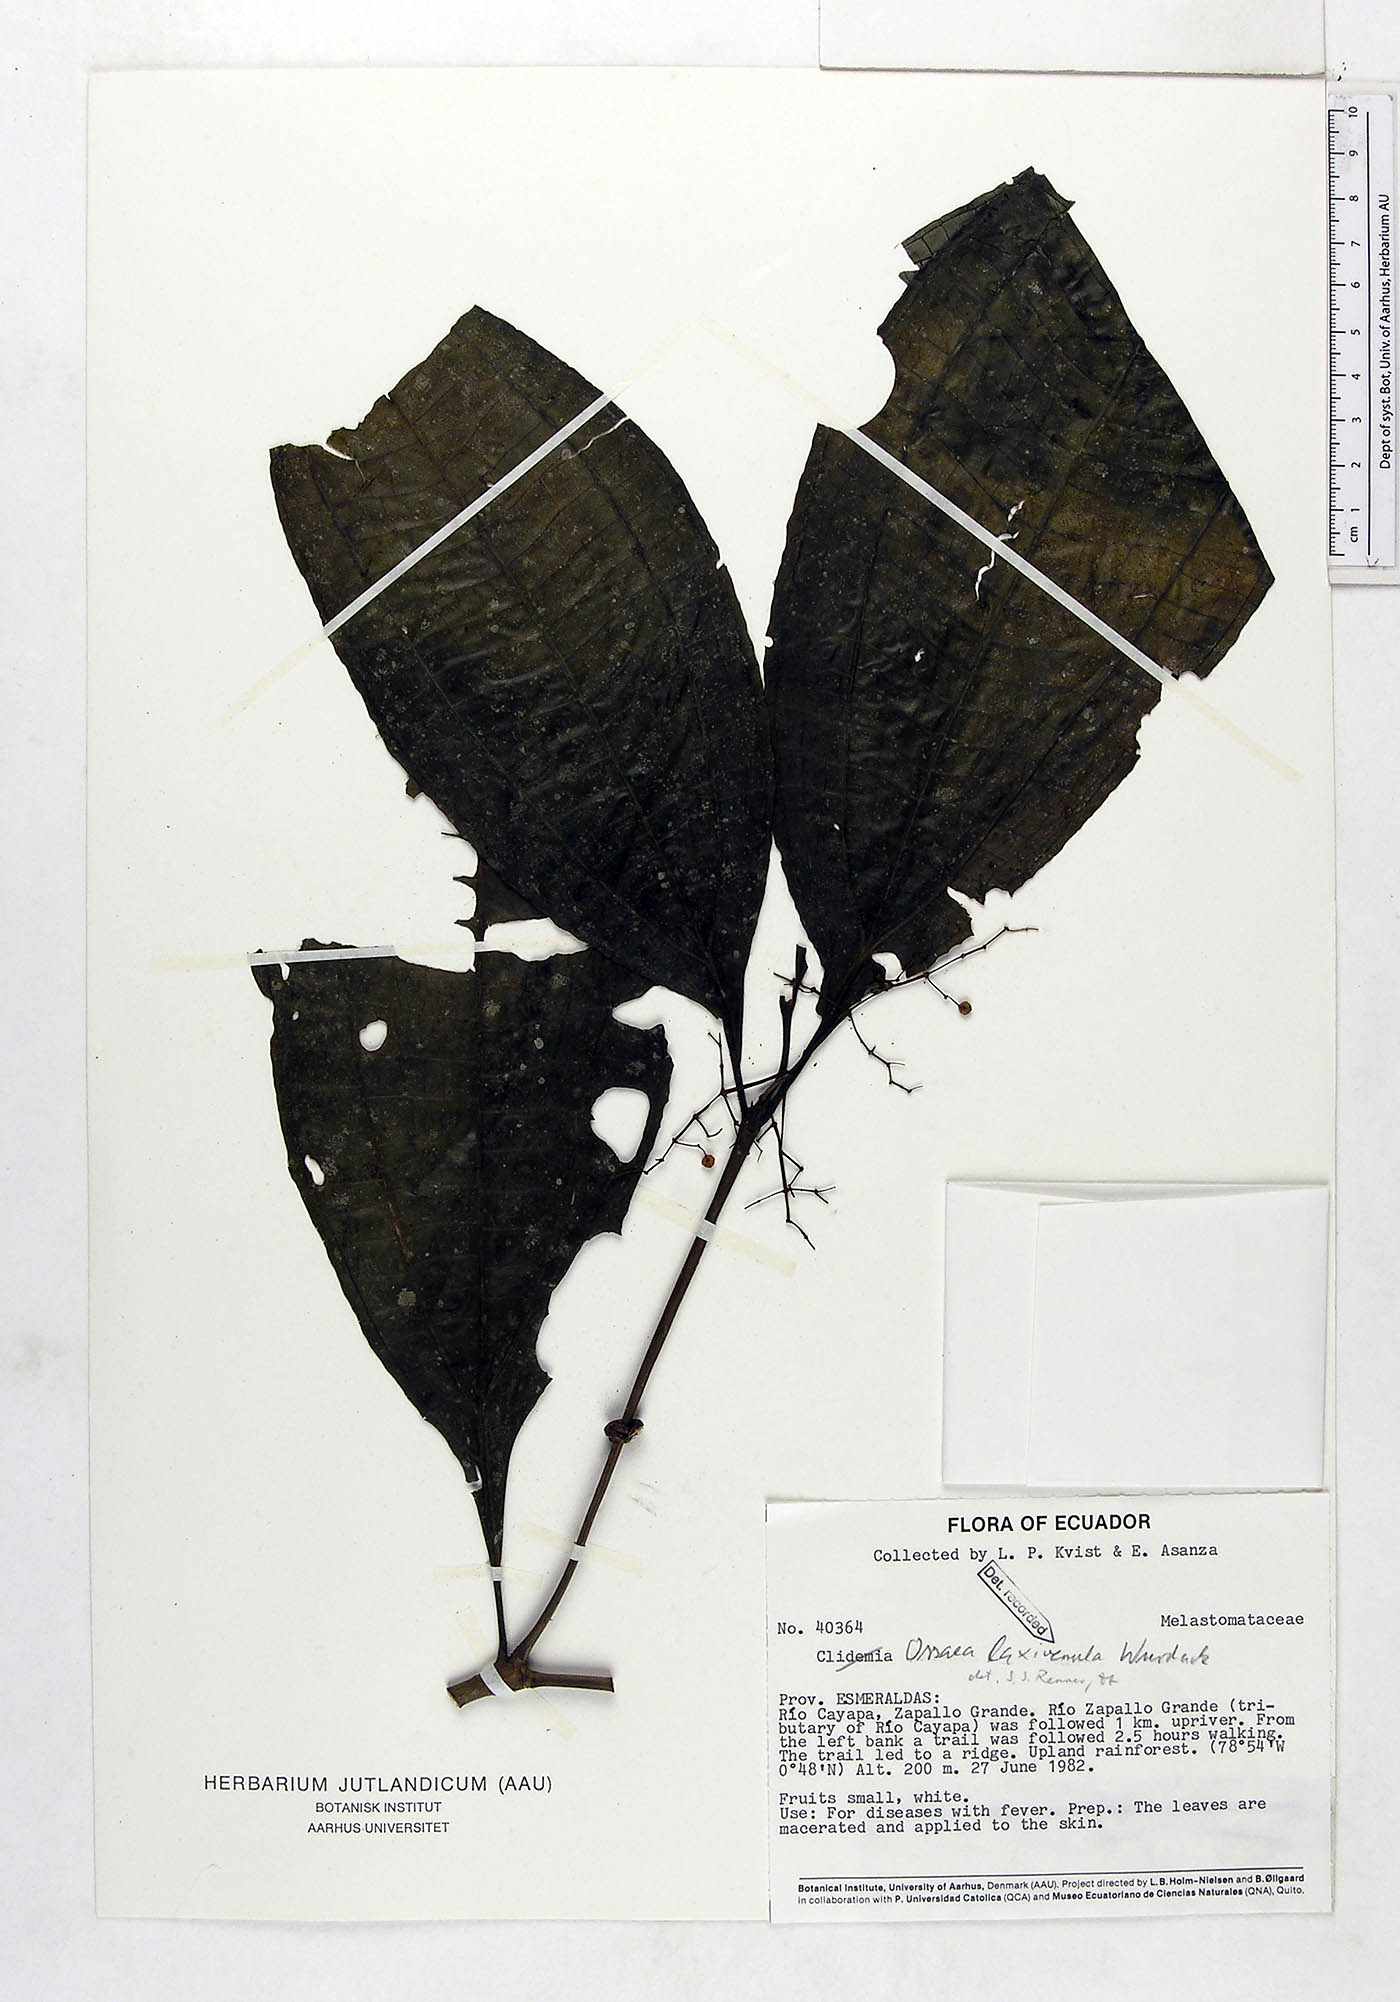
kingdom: Plantae
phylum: Tracheophyta
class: Magnoliopsida
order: Myrtales
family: Melastomataceae
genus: Miconia
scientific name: Miconia laxivenula
